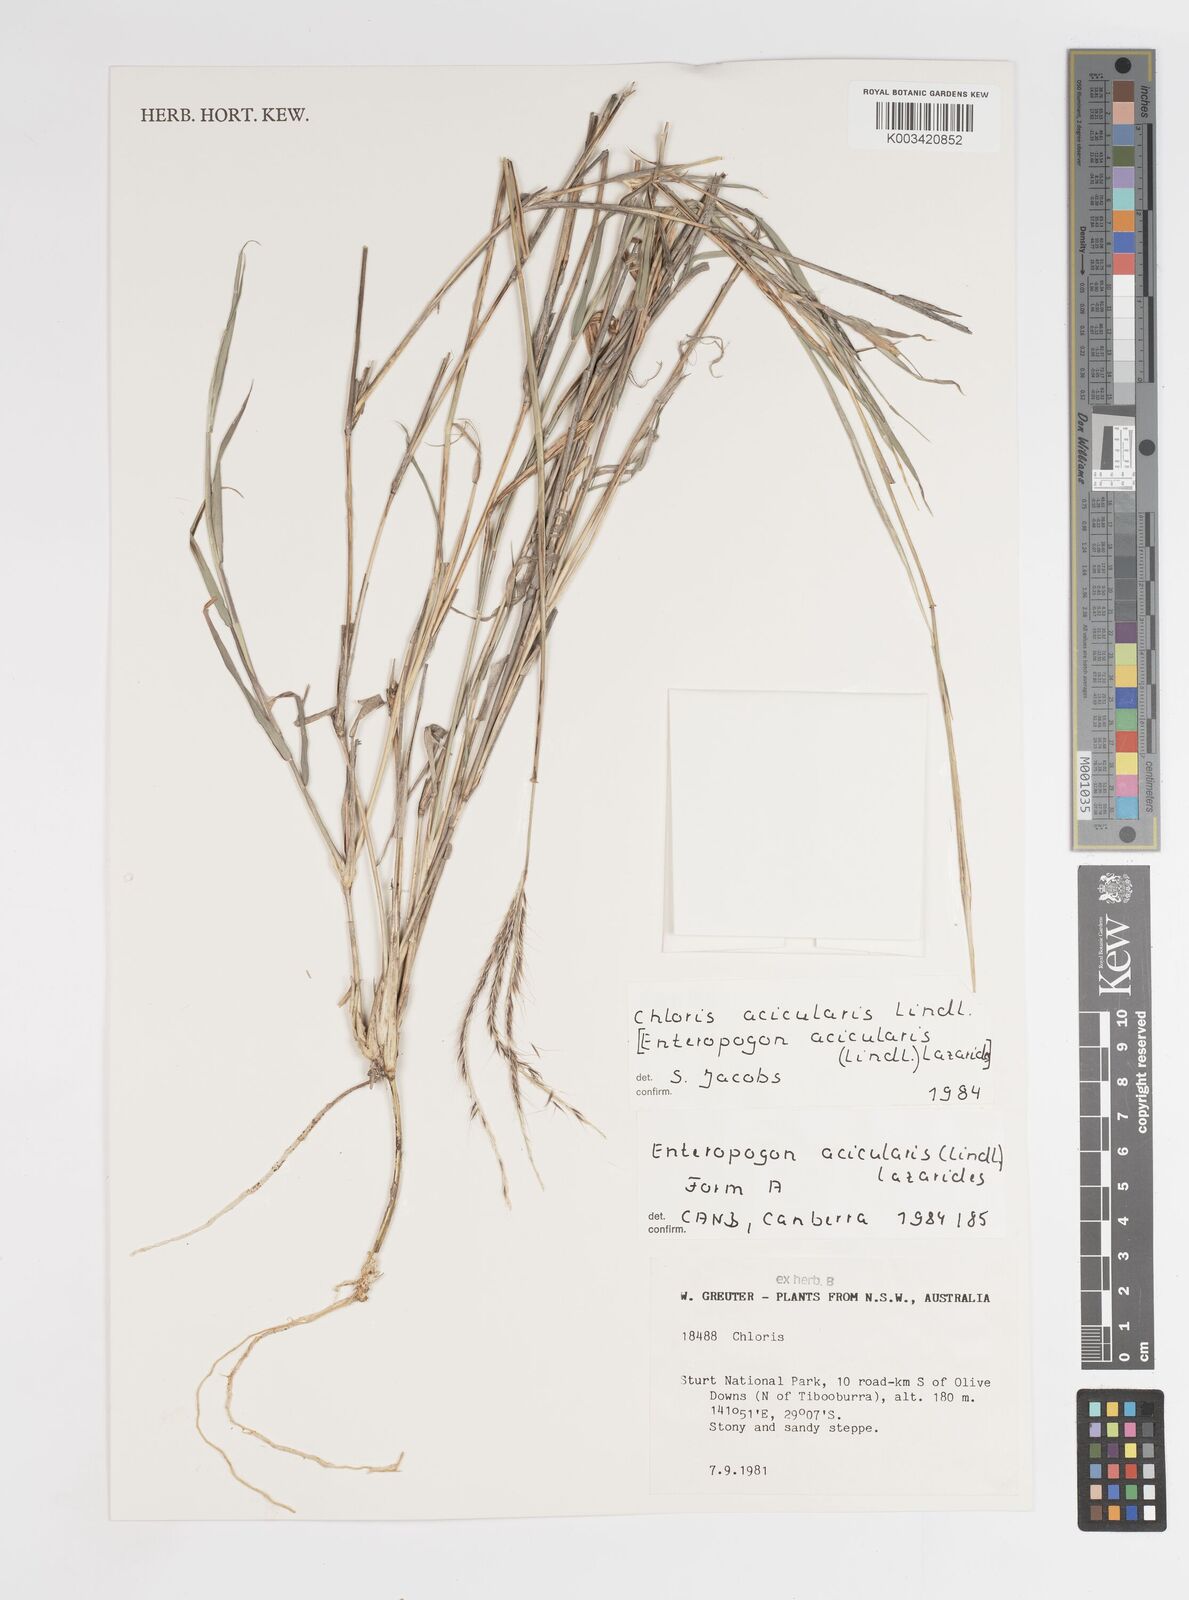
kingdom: Plantae
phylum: Tracheophyta
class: Liliopsida
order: Poales
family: Poaceae
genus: Enteropogon
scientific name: Enteropogon acicularis
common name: Curly windmill grass
